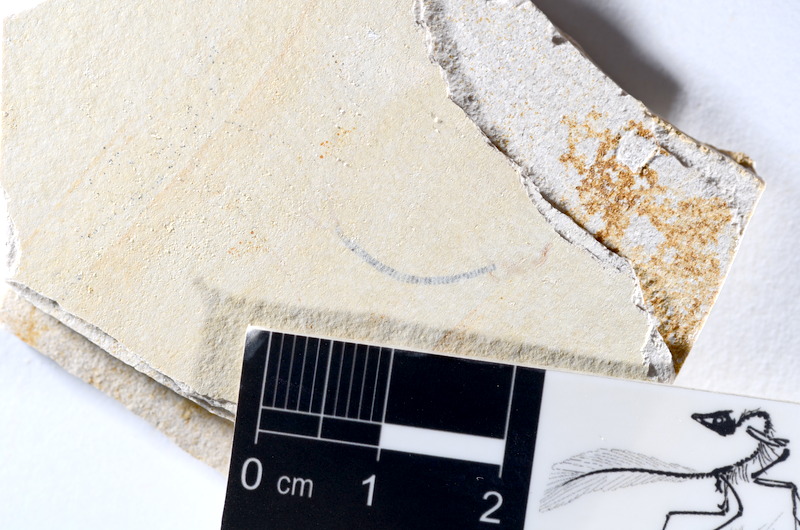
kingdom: Animalia
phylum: Chordata
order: Salmoniformes
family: Orthogonikleithridae
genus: Orthogonikleithrus
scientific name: Orthogonikleithrus hoelli
